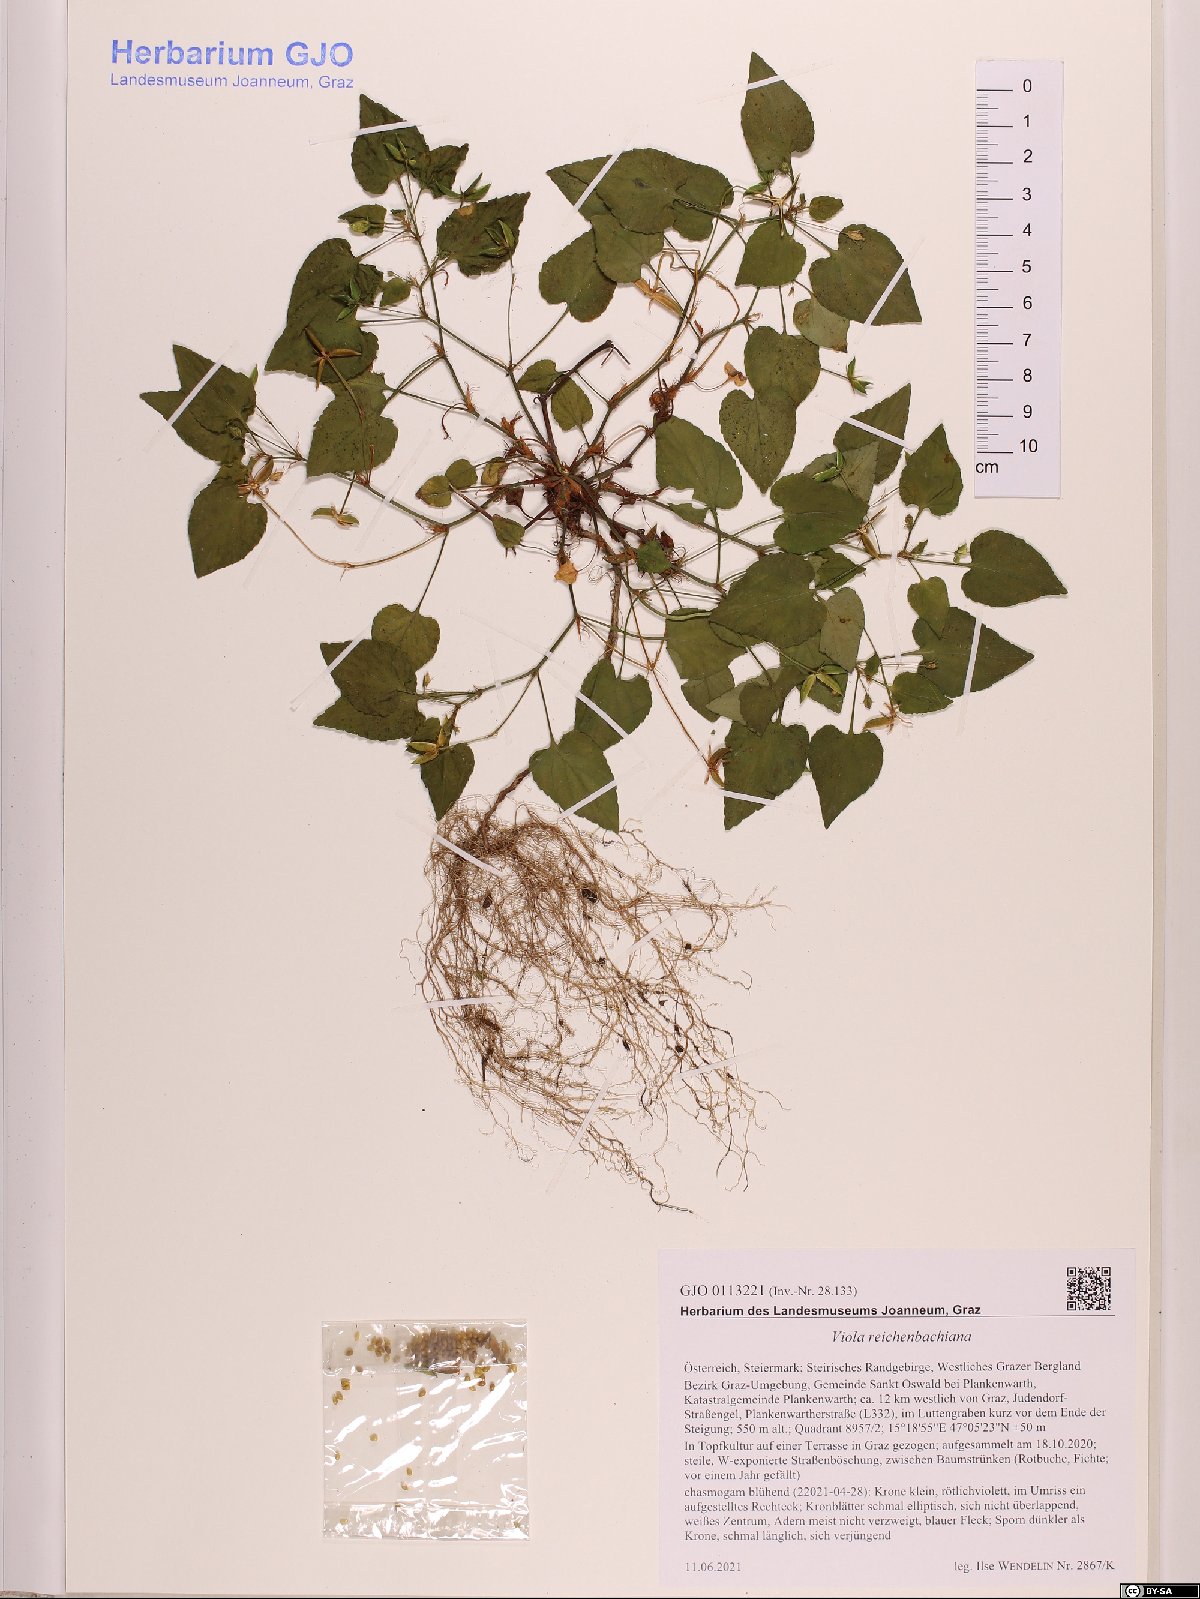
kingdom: Plantae
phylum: Tracheophyta
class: Magnoliopsida
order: Malpighiales
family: Violaceae
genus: Viola
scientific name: Viola reichenbachiana
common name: Early dog-violet
